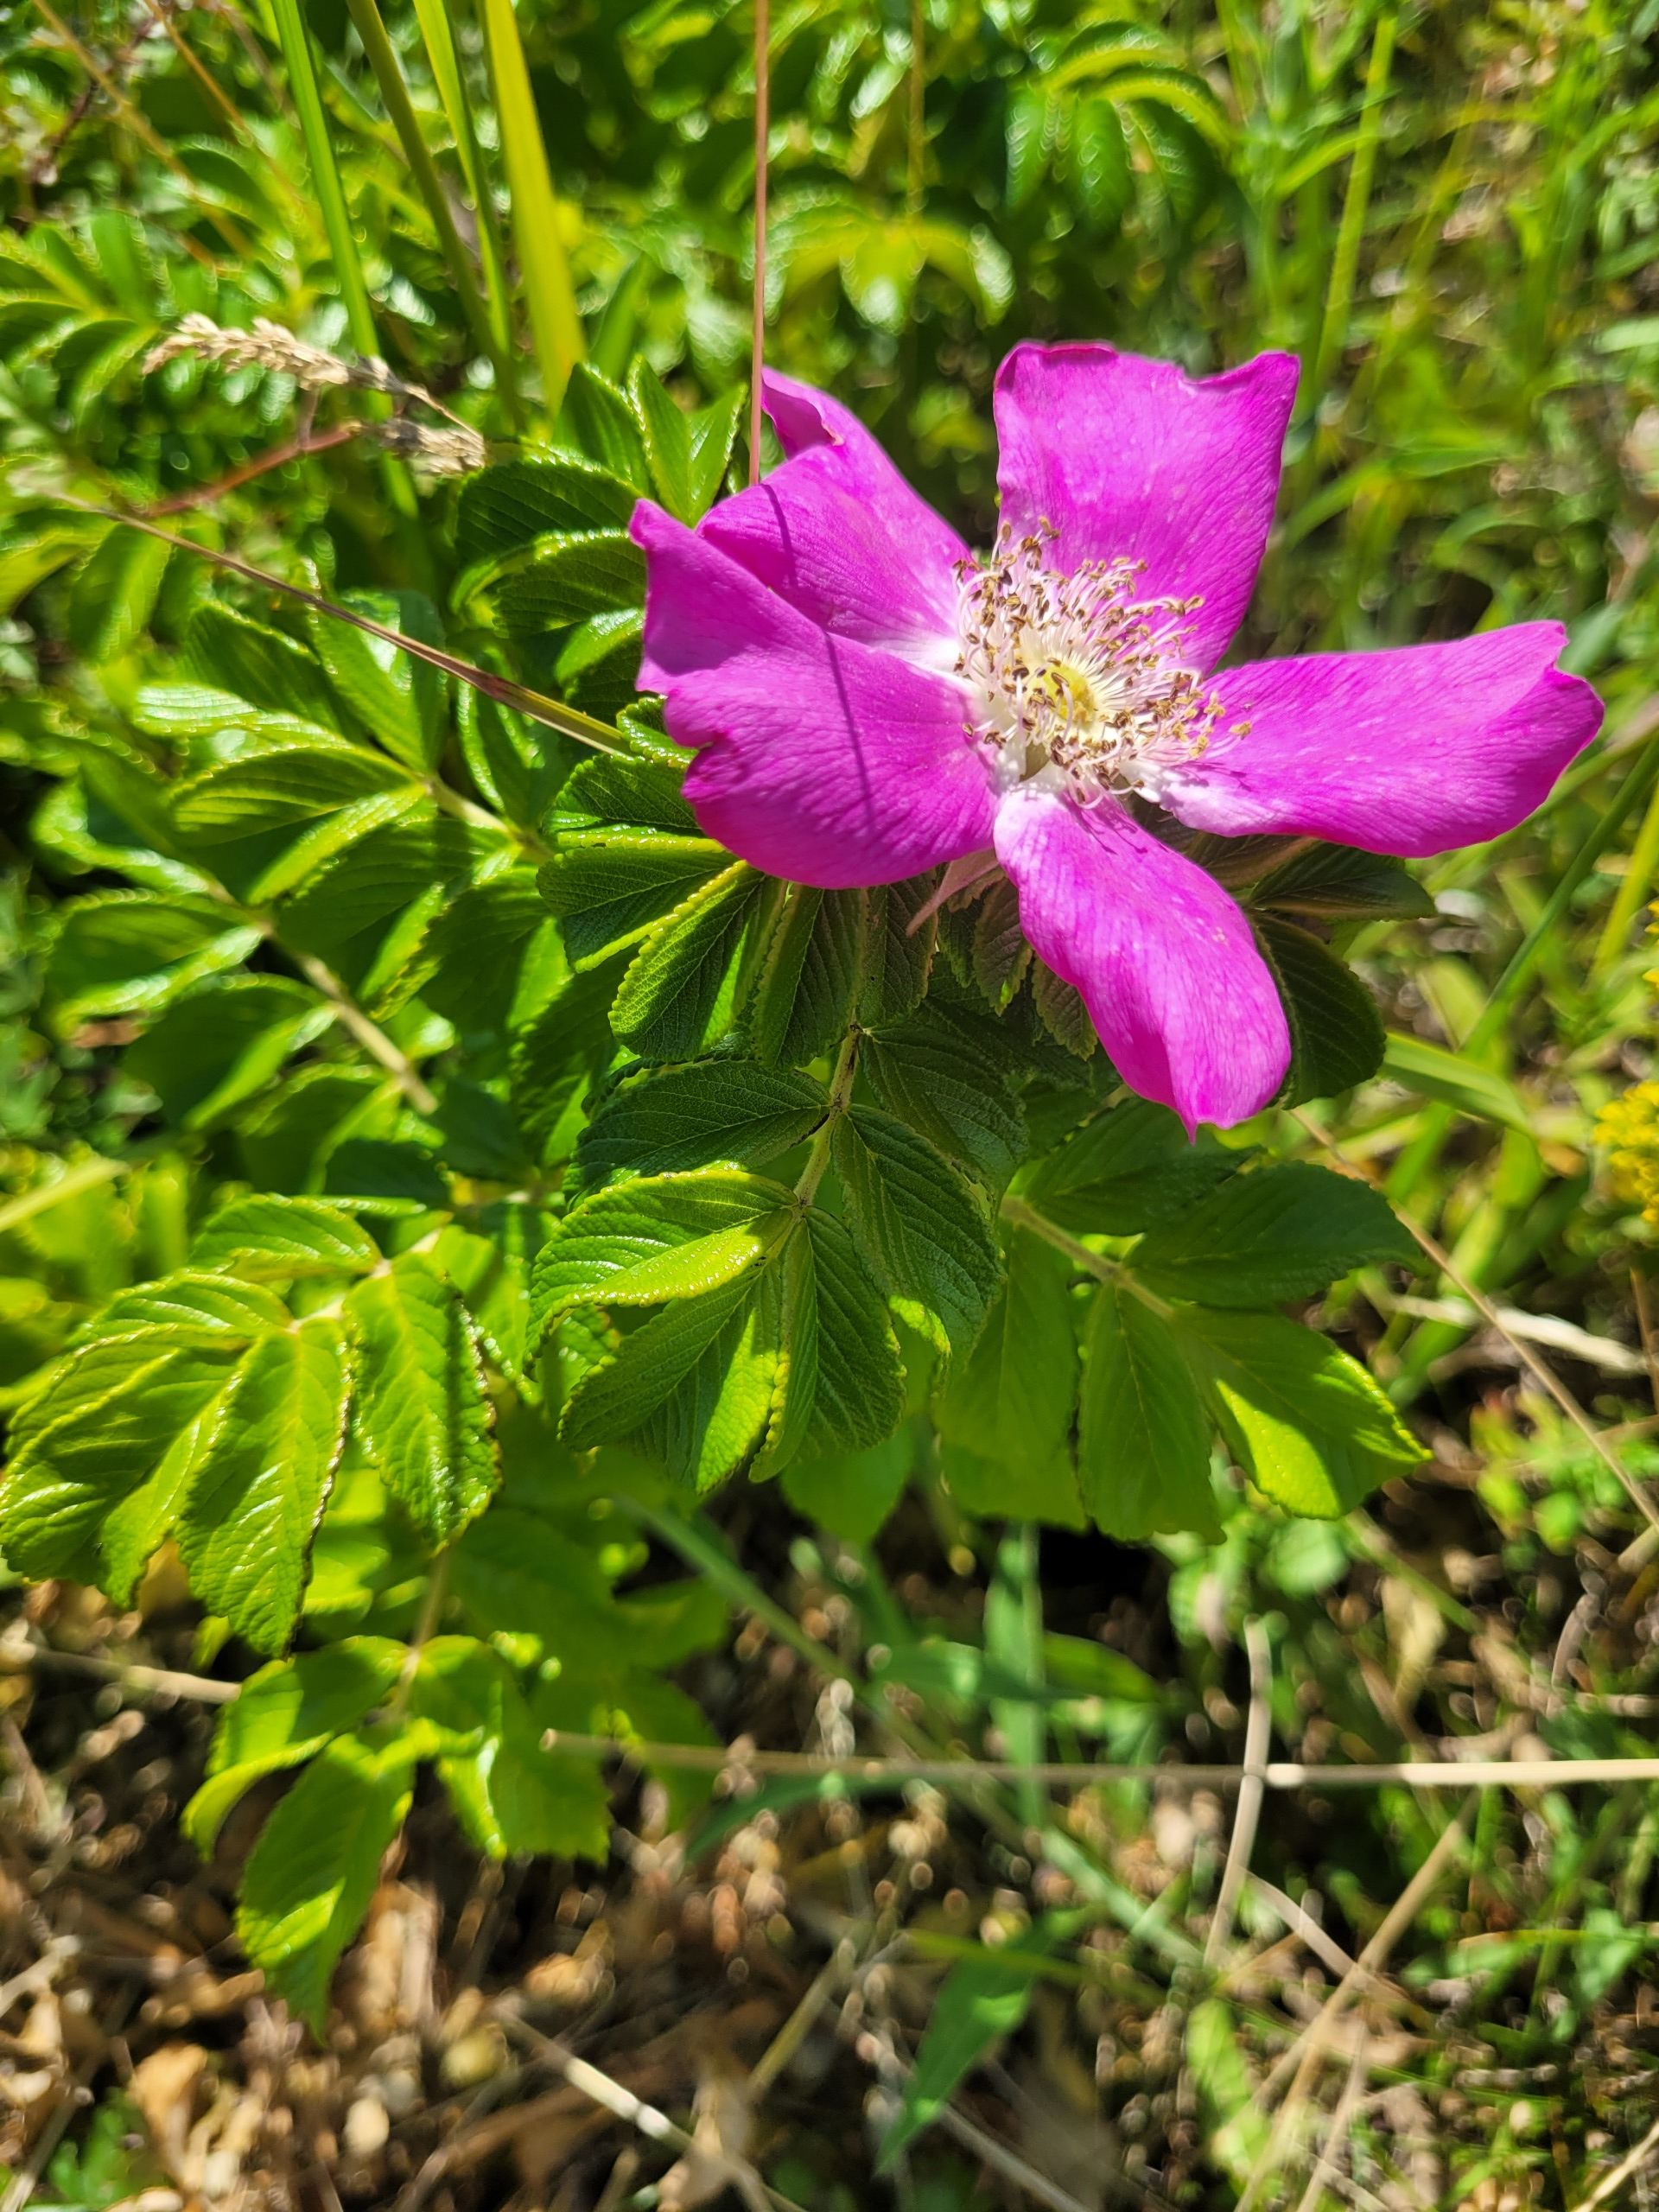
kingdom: Plantae
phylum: Tracheophyta
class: Magnoliopsida
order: Rosales
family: Rosaceae
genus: Rosa
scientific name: Rosa rugosa
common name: Rynket rose
